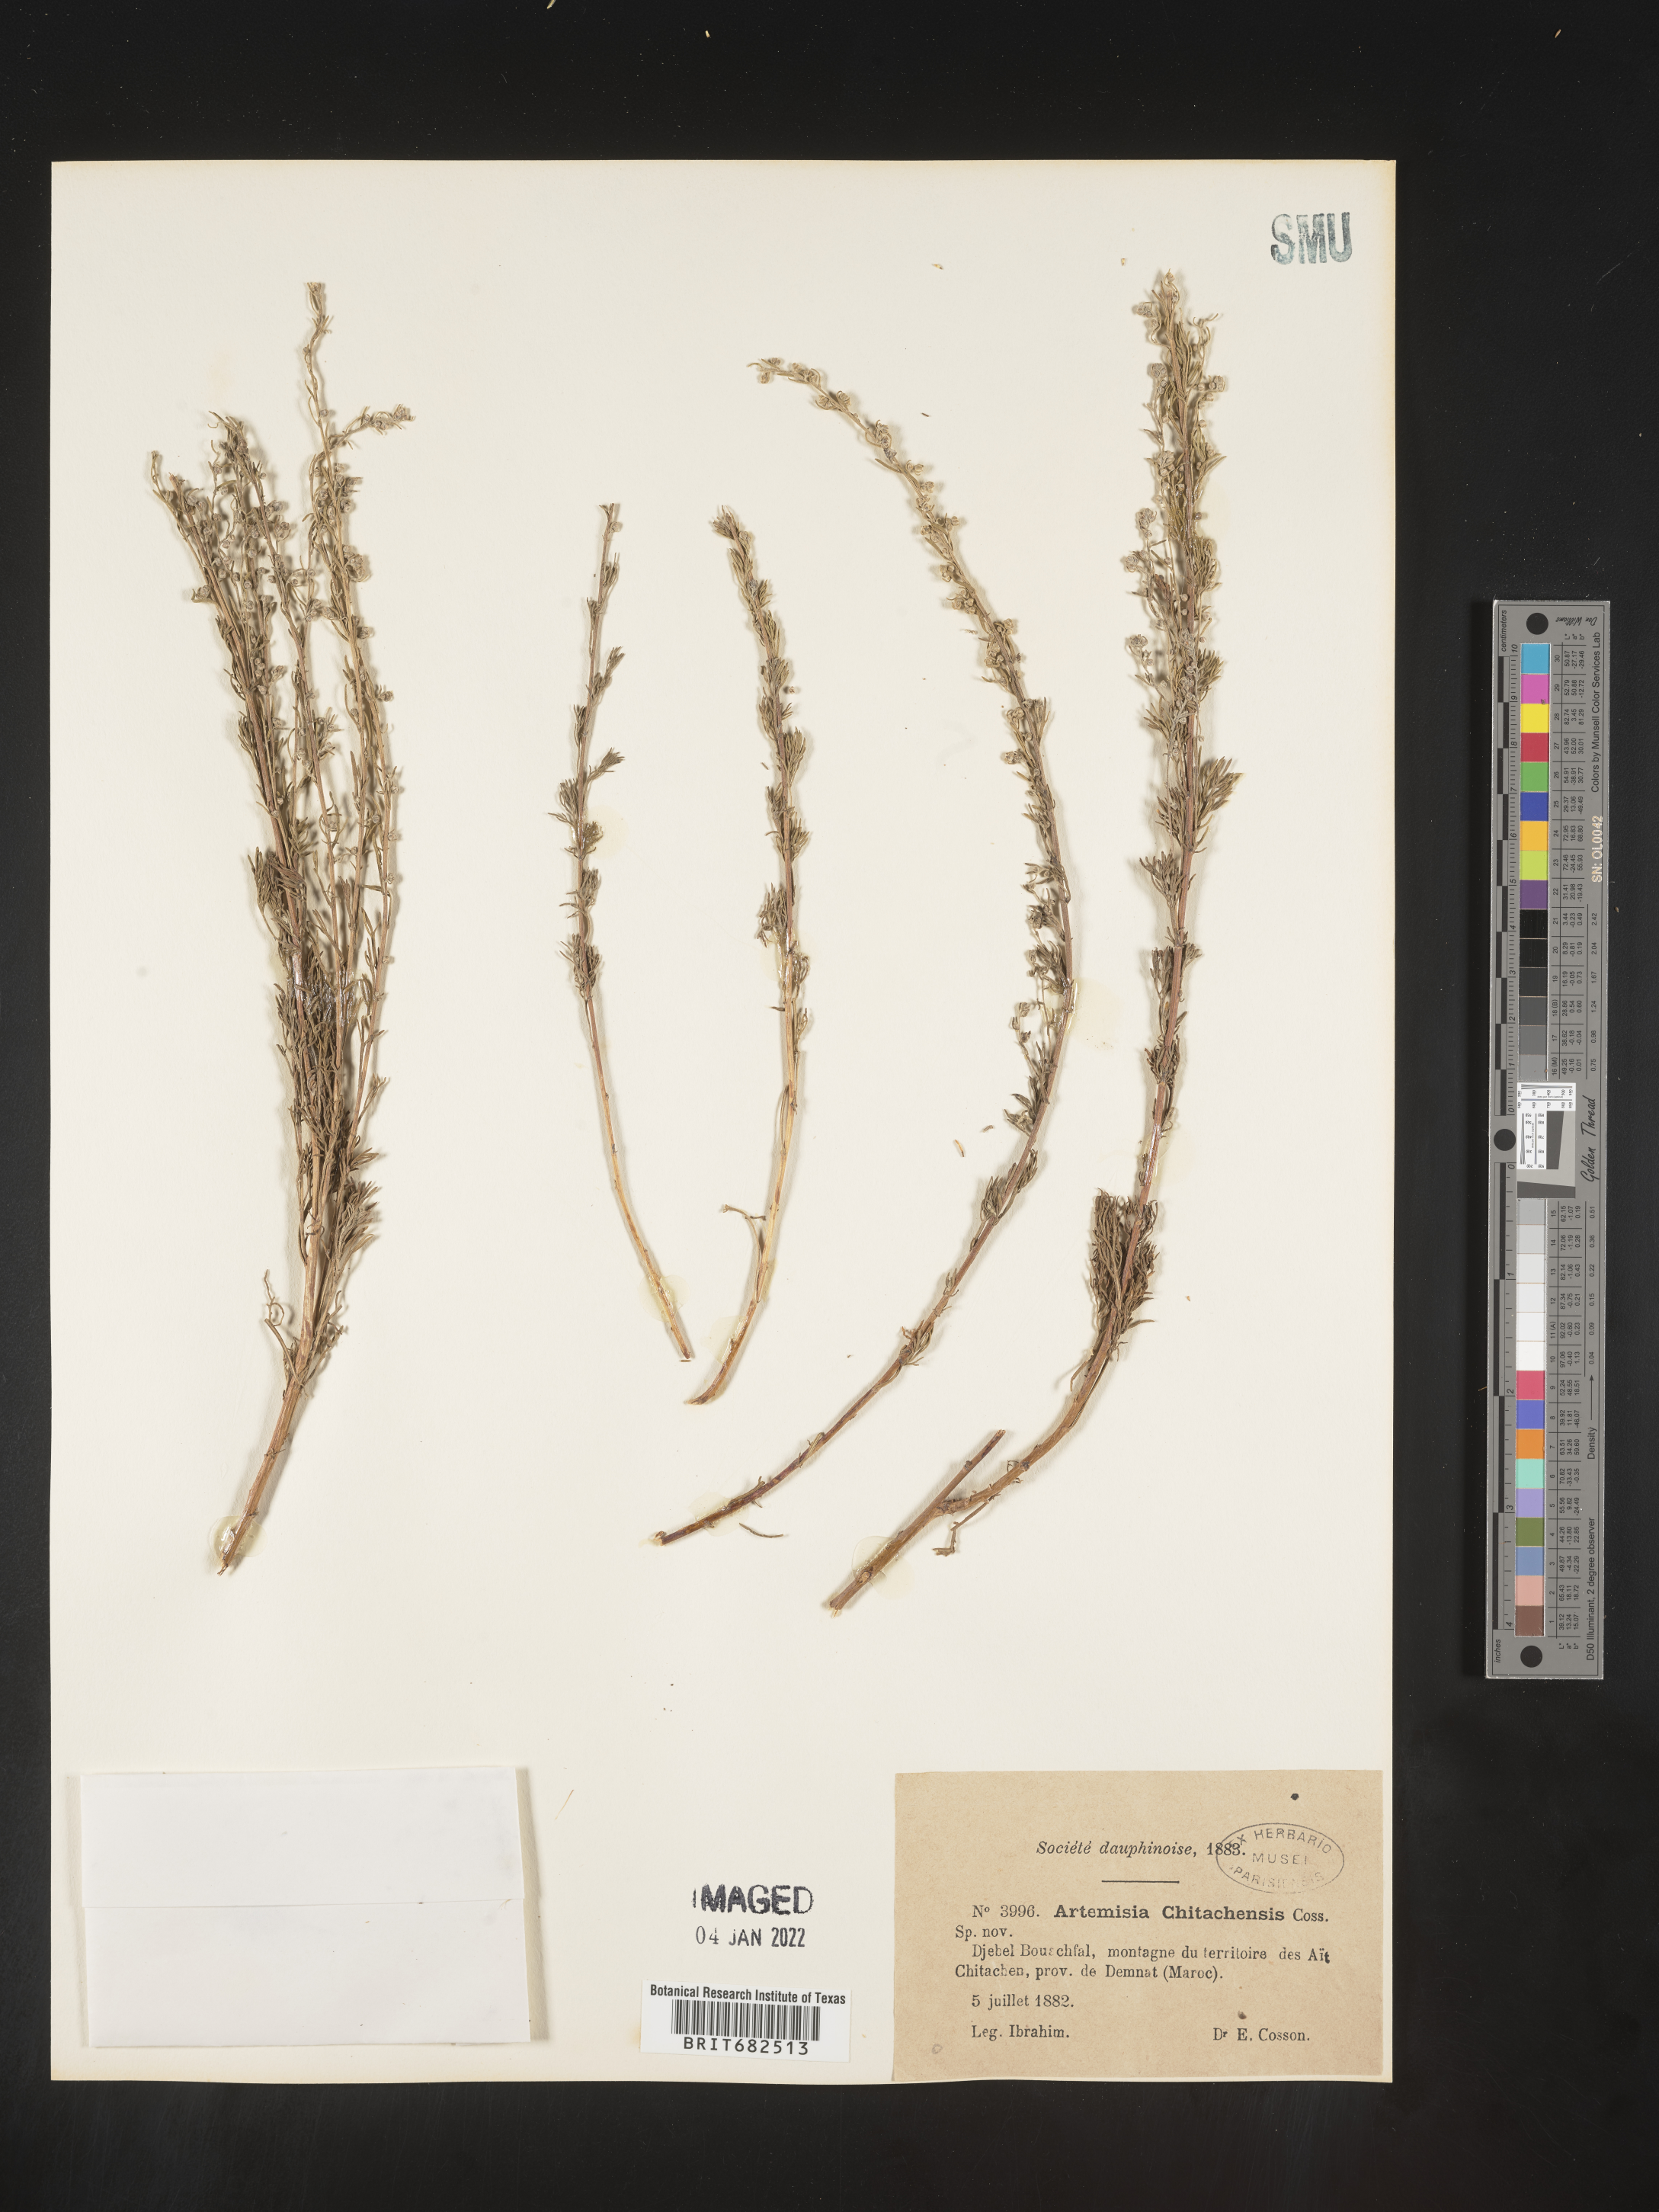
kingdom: Plantae
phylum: Tracheophyta
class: Magnoliopsida
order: Asterales
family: Asteraceae
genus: Artemisia
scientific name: Artemisia
